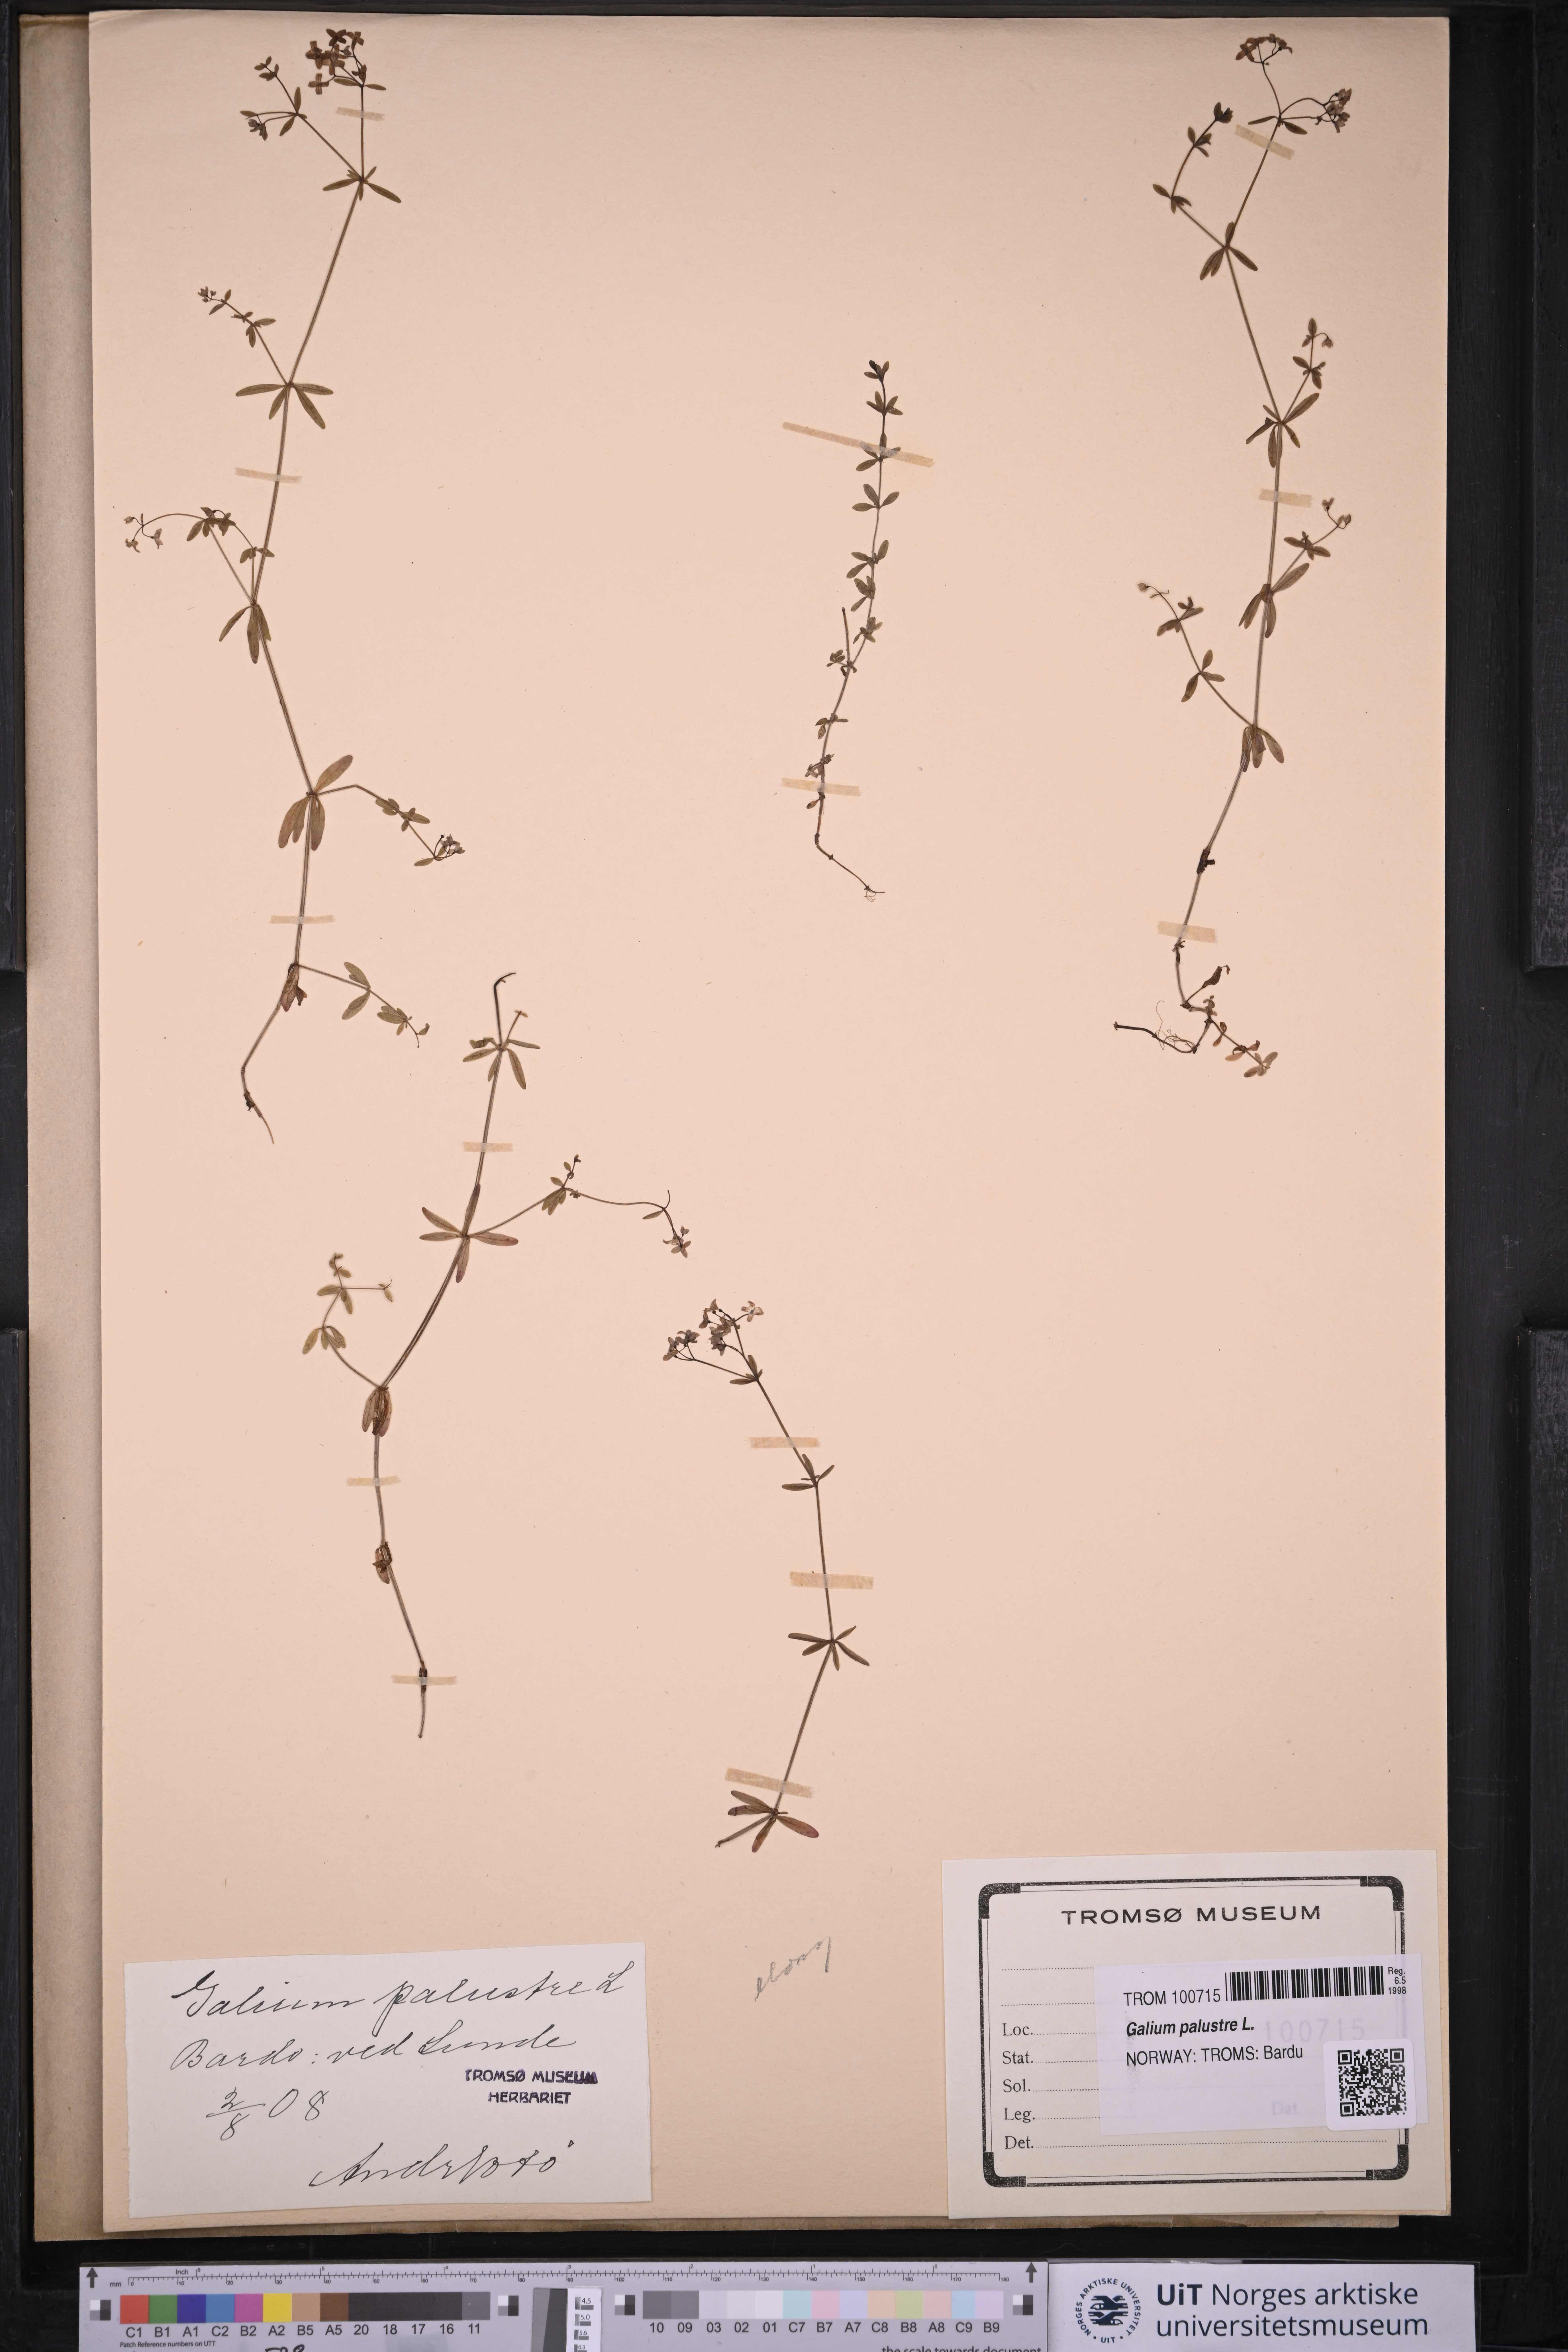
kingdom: Plantae
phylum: Tracheophyta
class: Magnoliopsida
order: Gentianales
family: Rubiaceae
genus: Galium
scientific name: Galium palustre
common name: Common marsh-bedstraw
